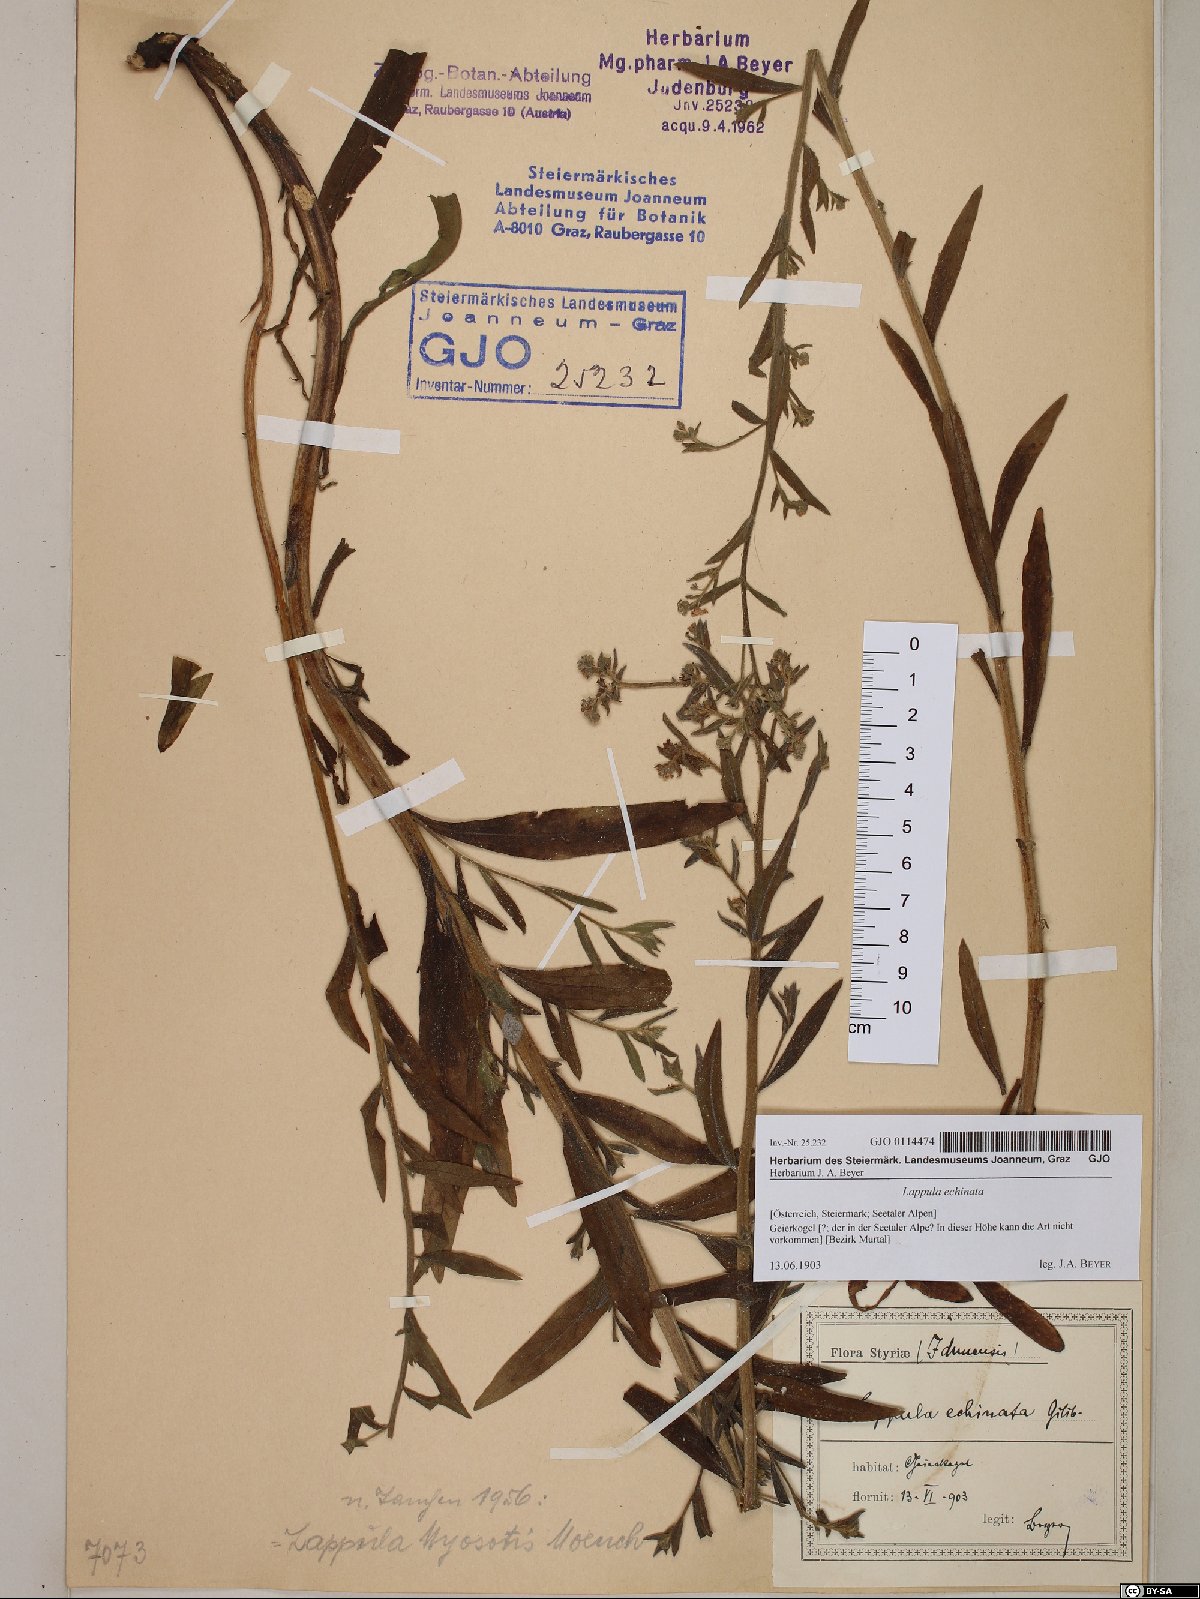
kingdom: Plantae
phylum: Tracheophyta
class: Magnoliopsida
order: Boraginales
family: Boraginaceae
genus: Lappula
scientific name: Lappula squarrosa
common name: European stickseed
